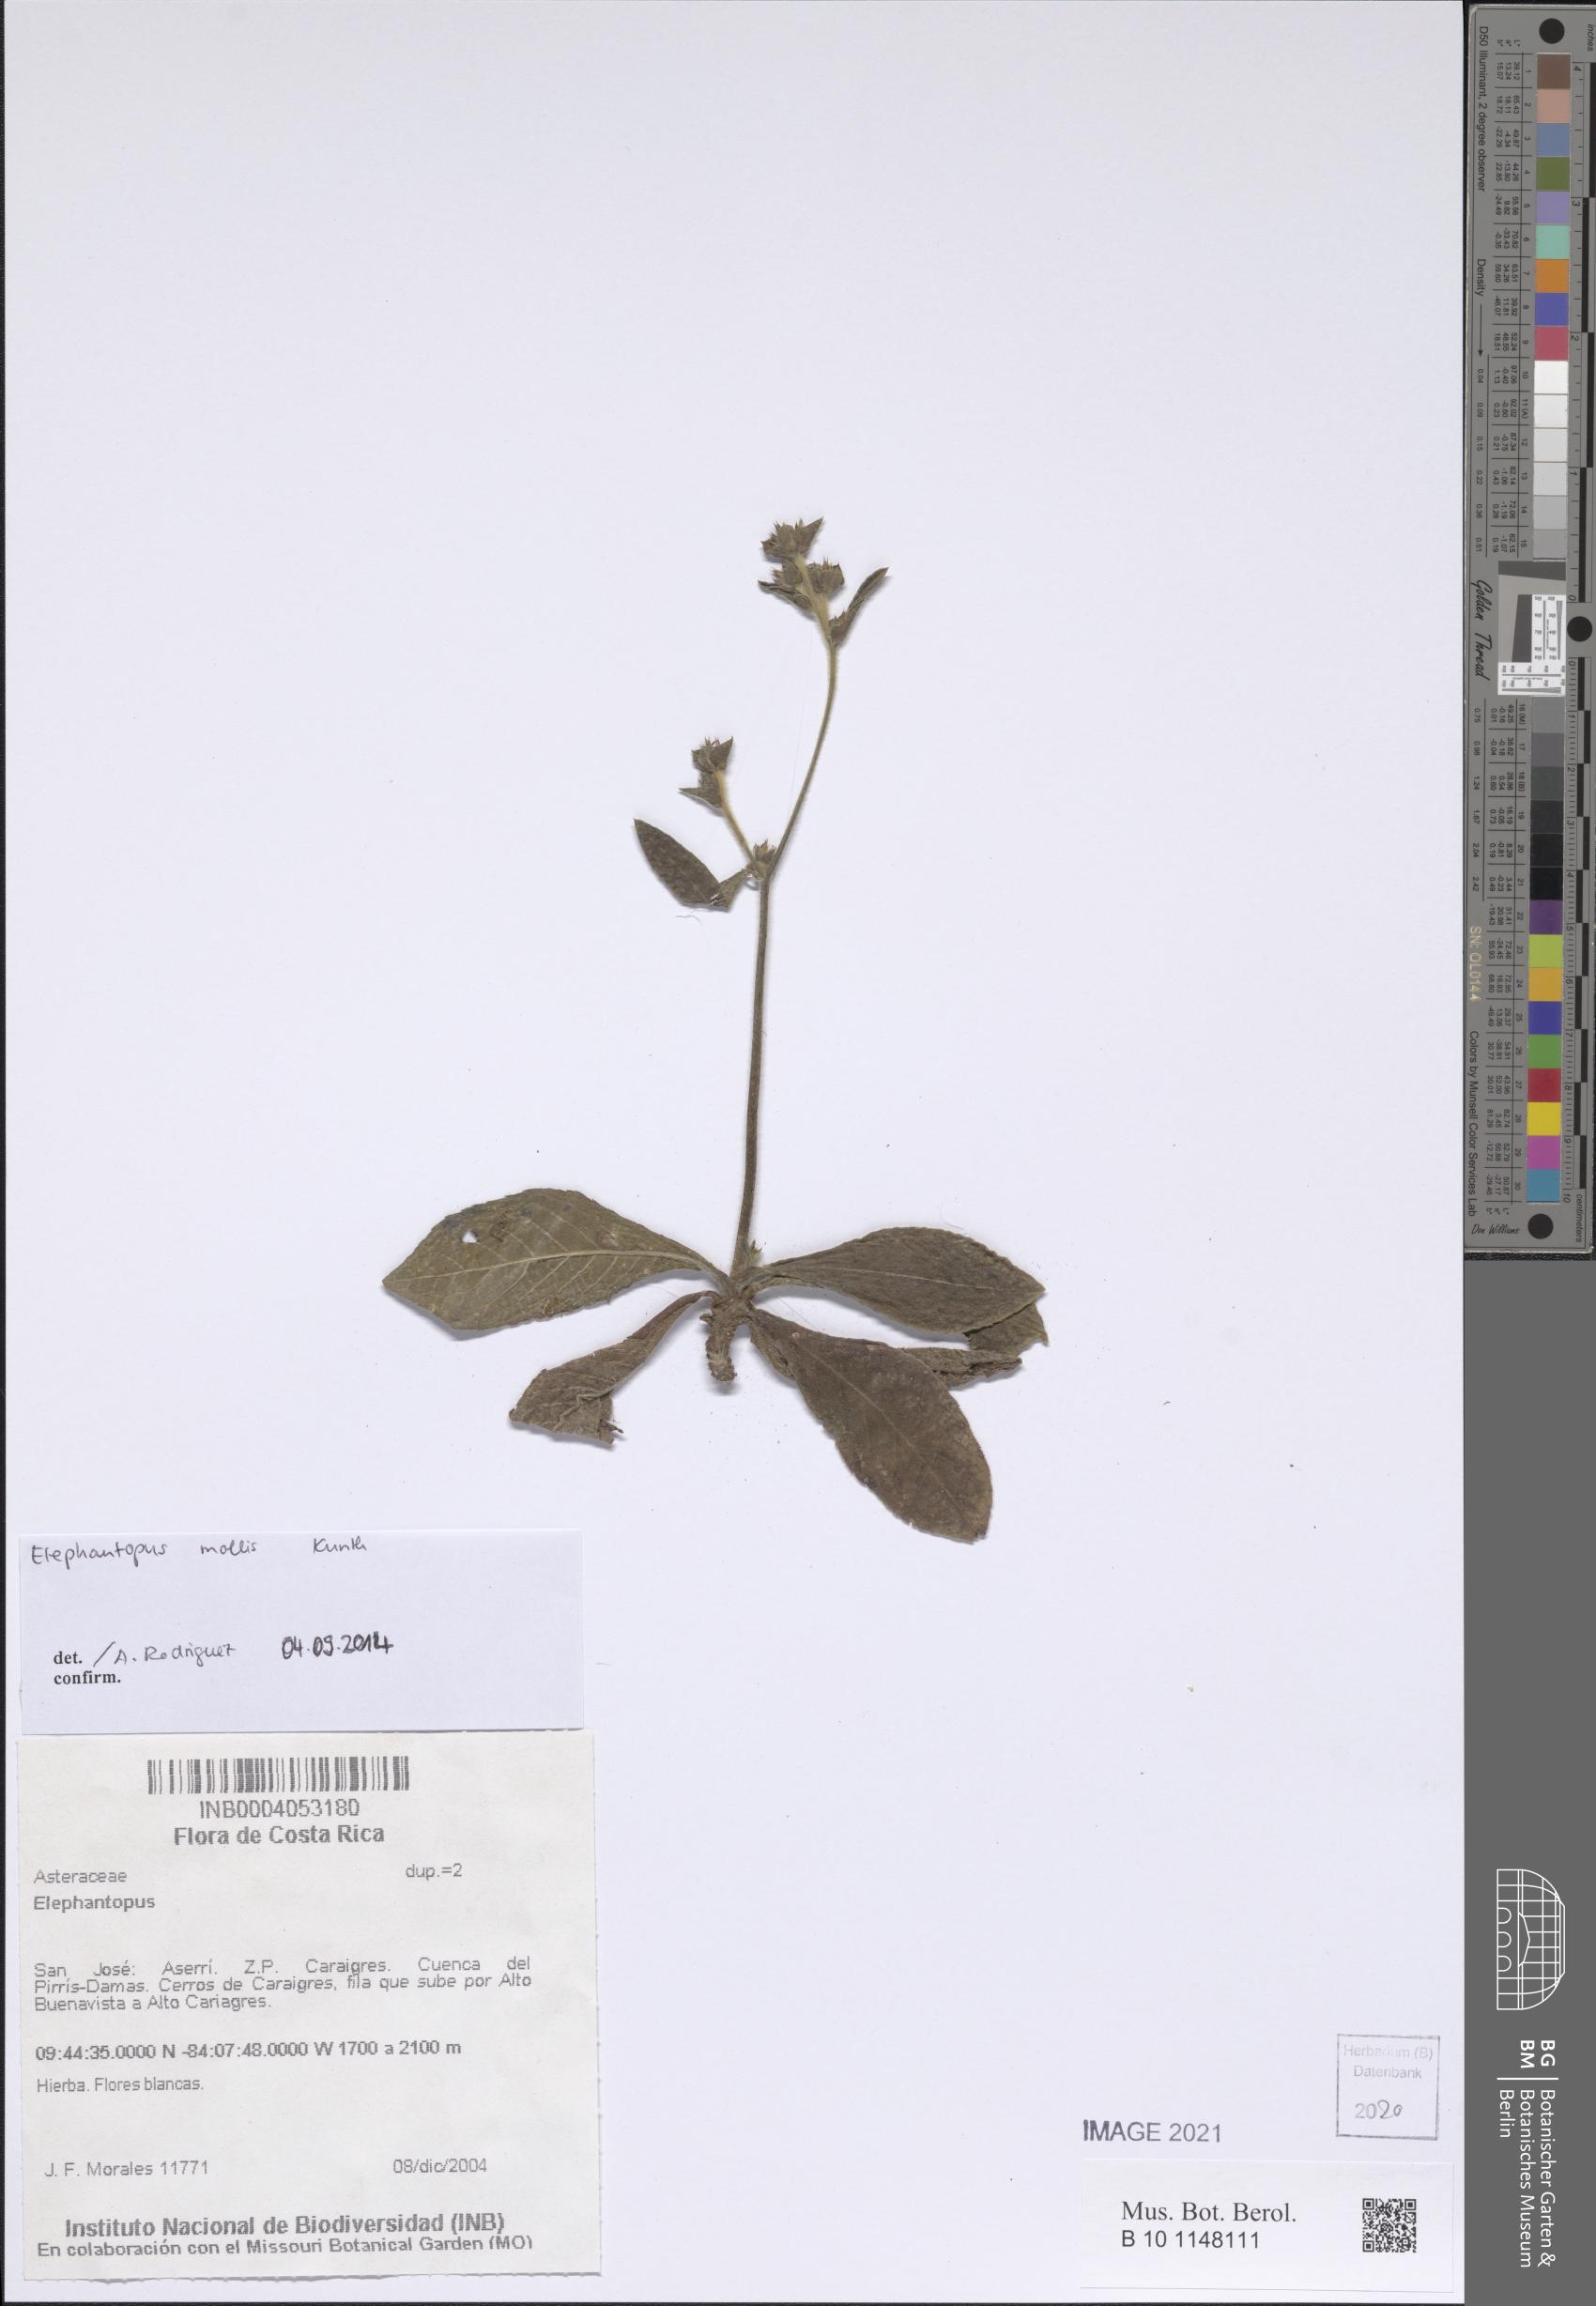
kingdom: Plantae
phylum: Tracheophyta
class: Magnoliopsida
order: Asterales
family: Asteraceae
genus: Elephantopus
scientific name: Elephantopus mollis
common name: Soft elephantsfoot
